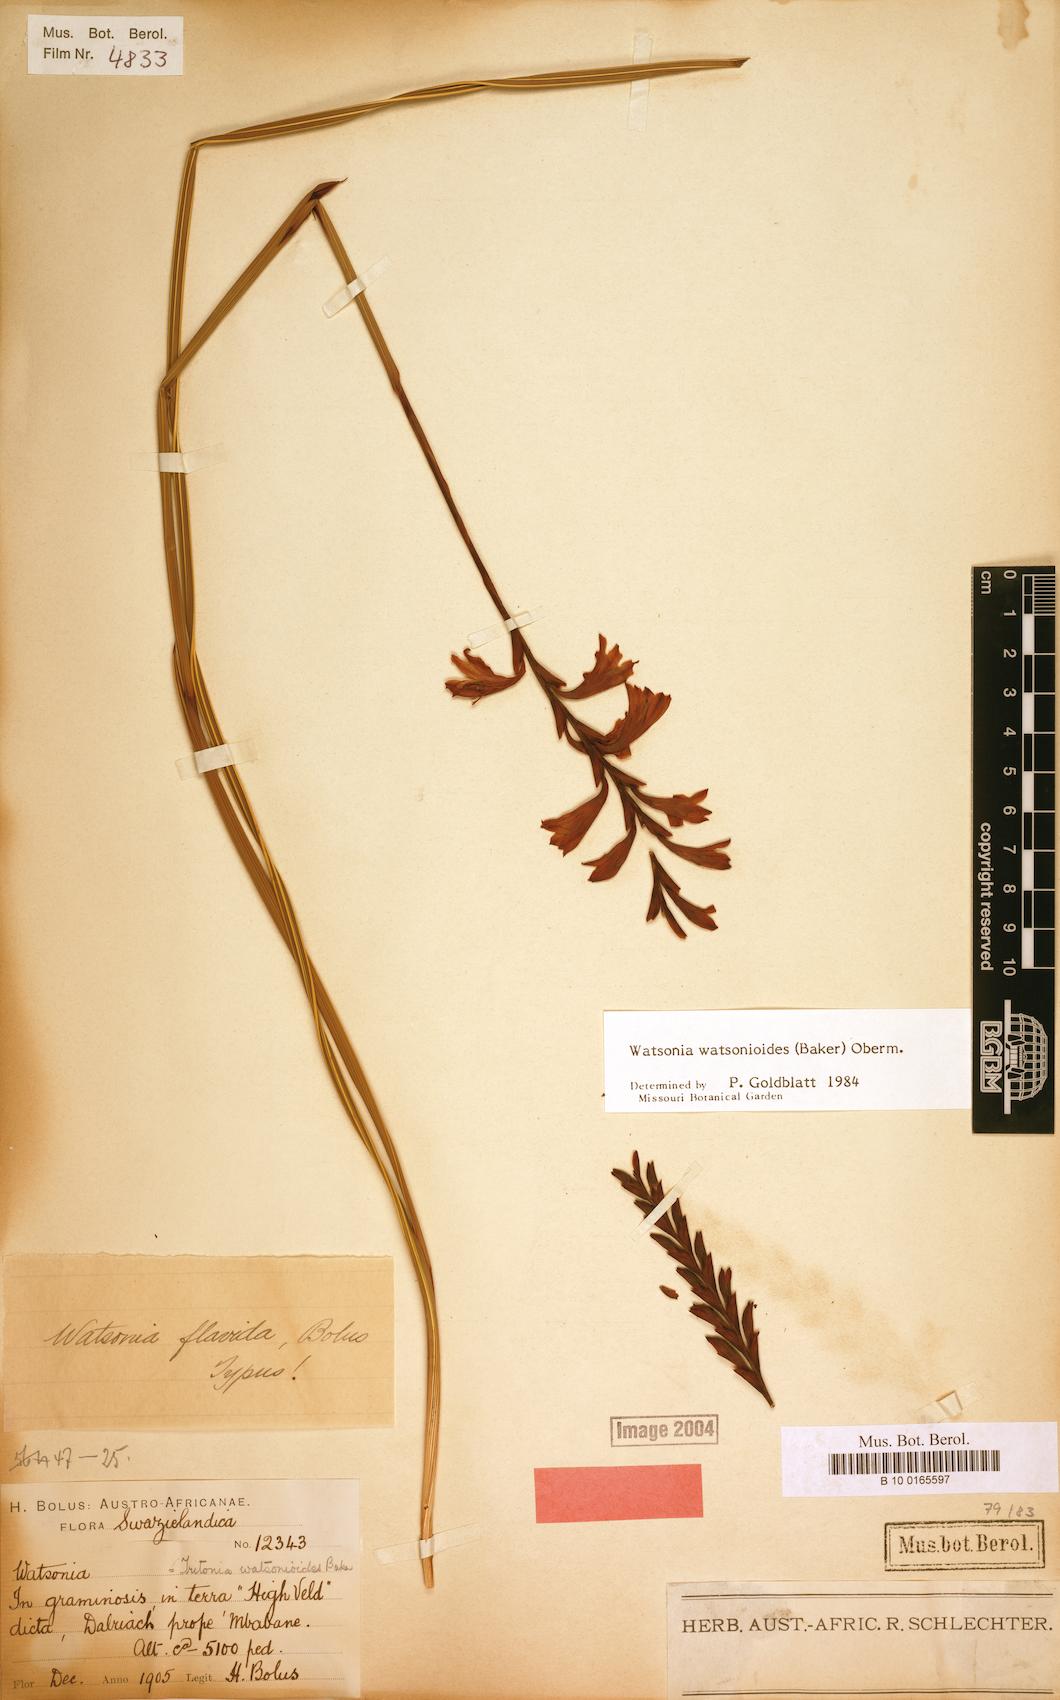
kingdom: Plantae
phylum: Tracheophyta
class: Liliopsida
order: Asparagales
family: Iridaceae
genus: Watsonia
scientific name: Watsonia watsonioides
